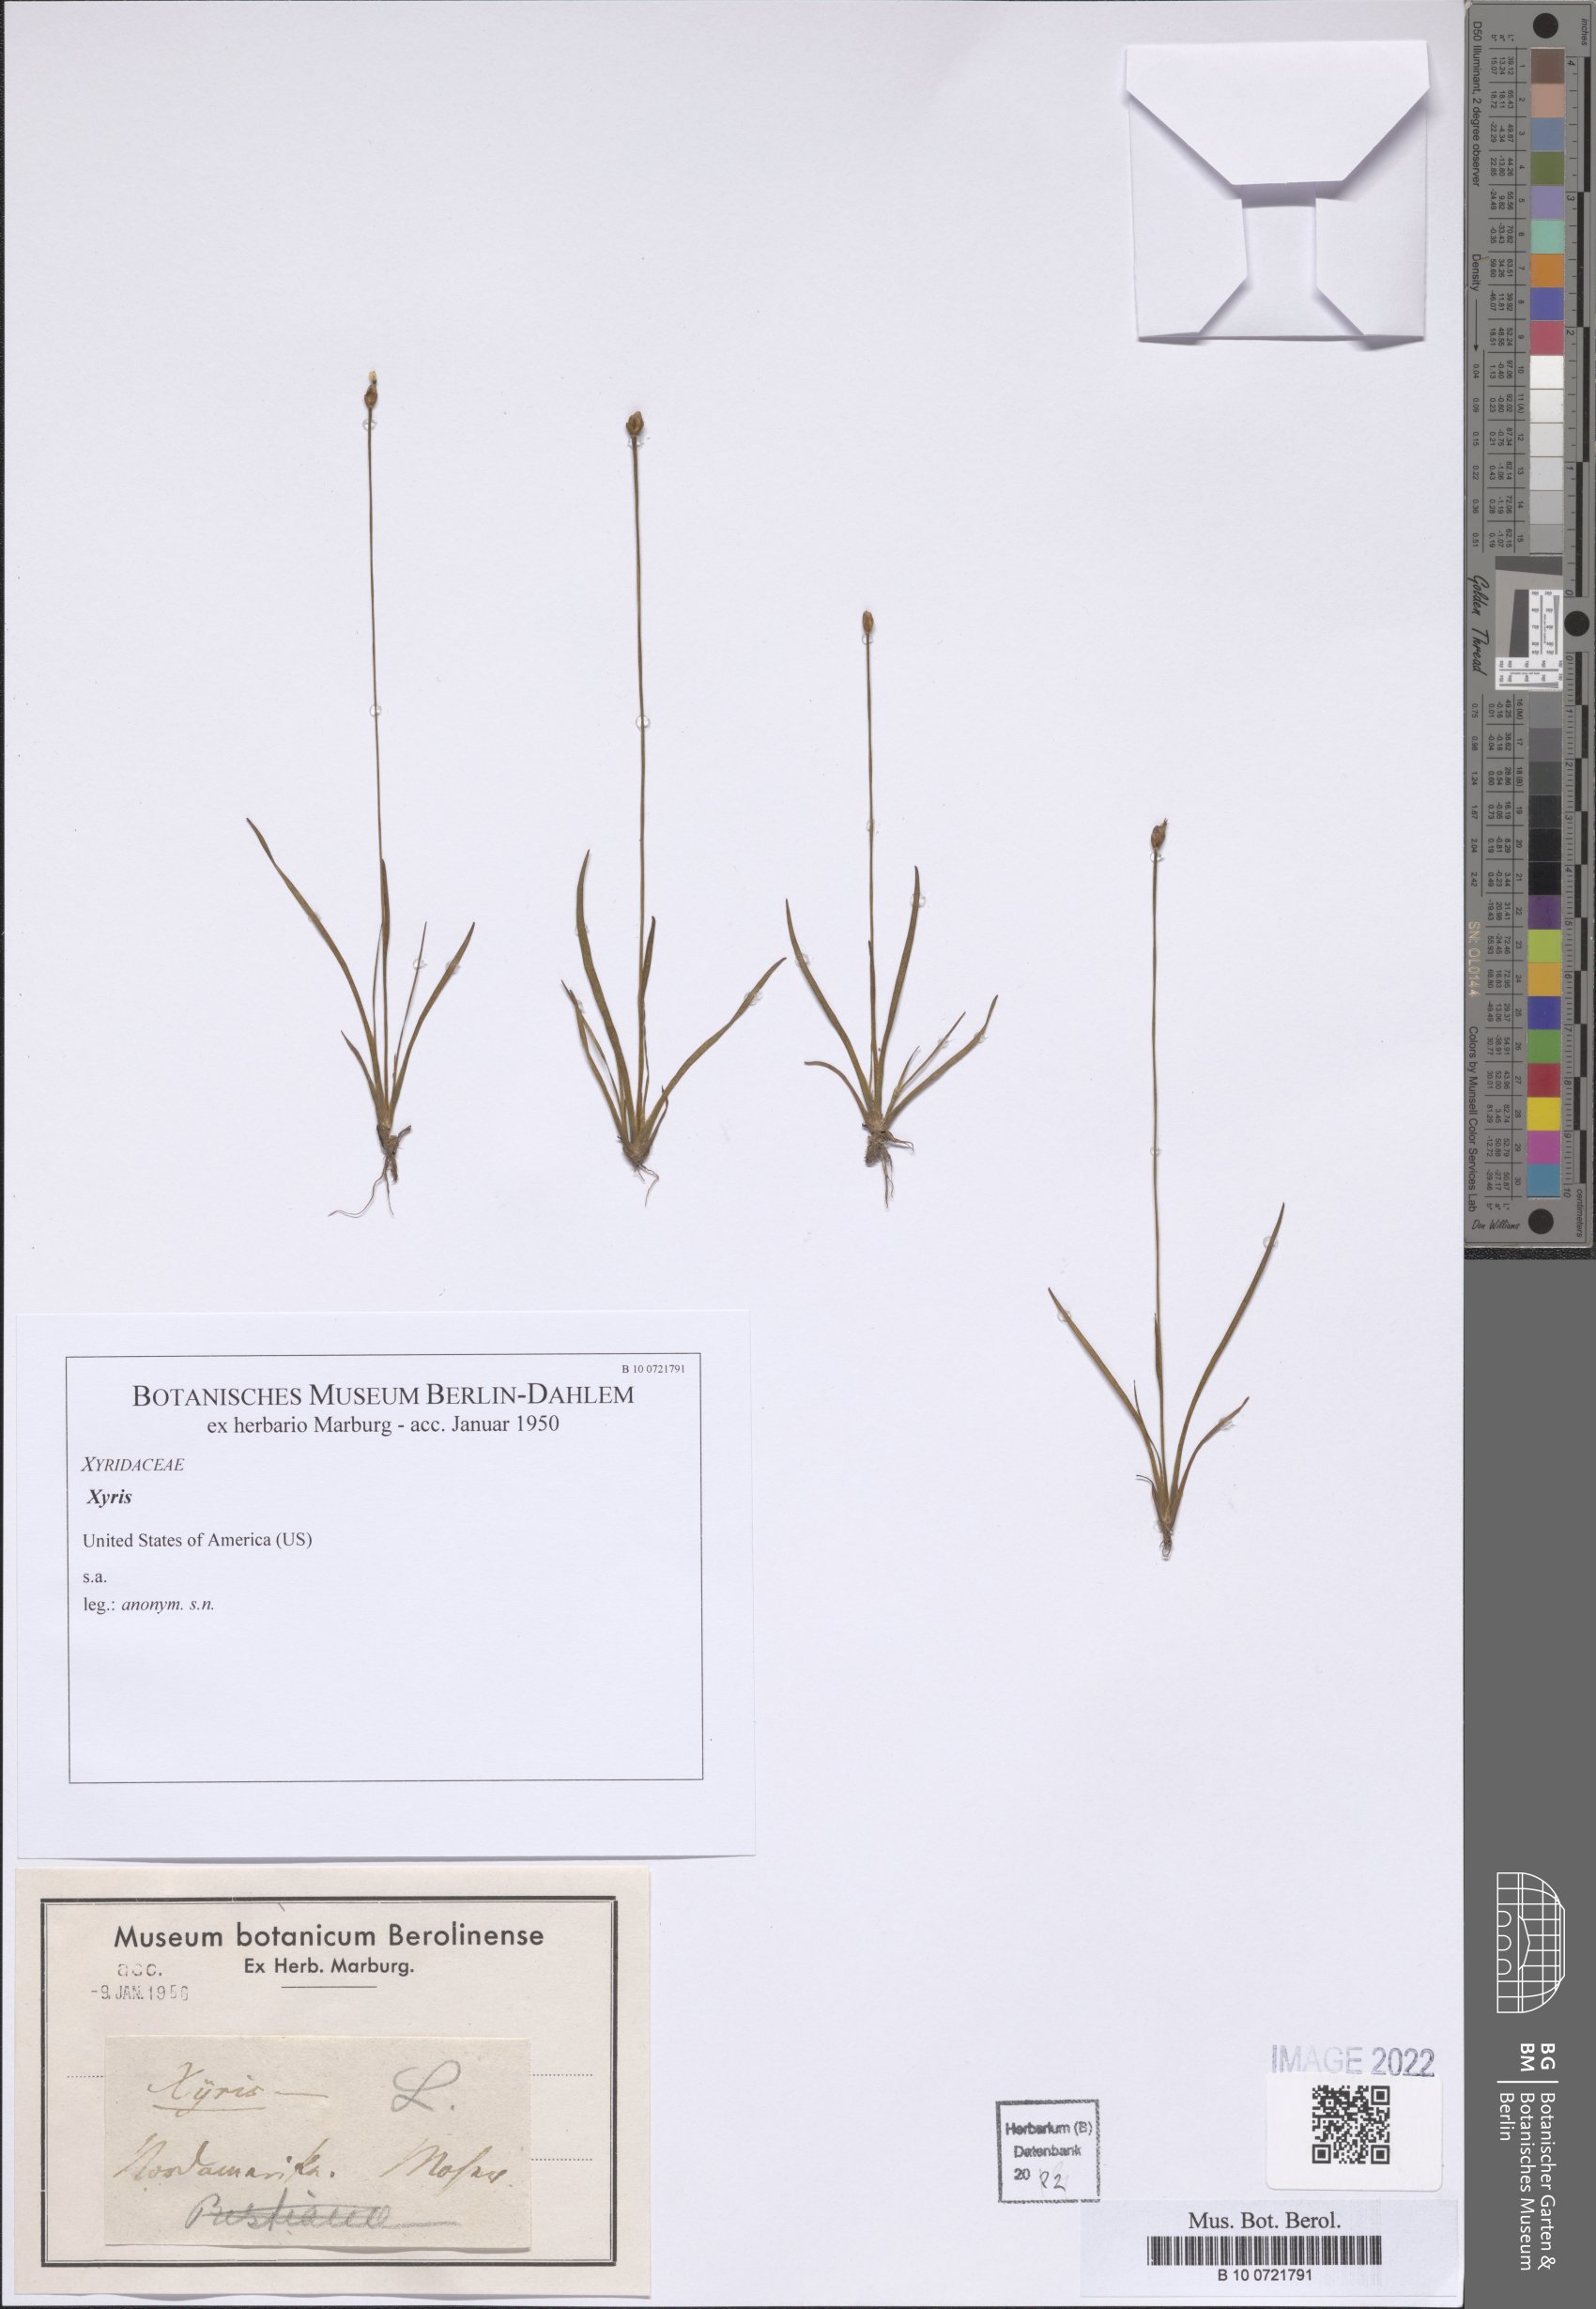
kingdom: Plantae
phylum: Tracheophyta
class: Liliopsida
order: Poales
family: Xyridaceae
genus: Xyris
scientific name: Xyris
